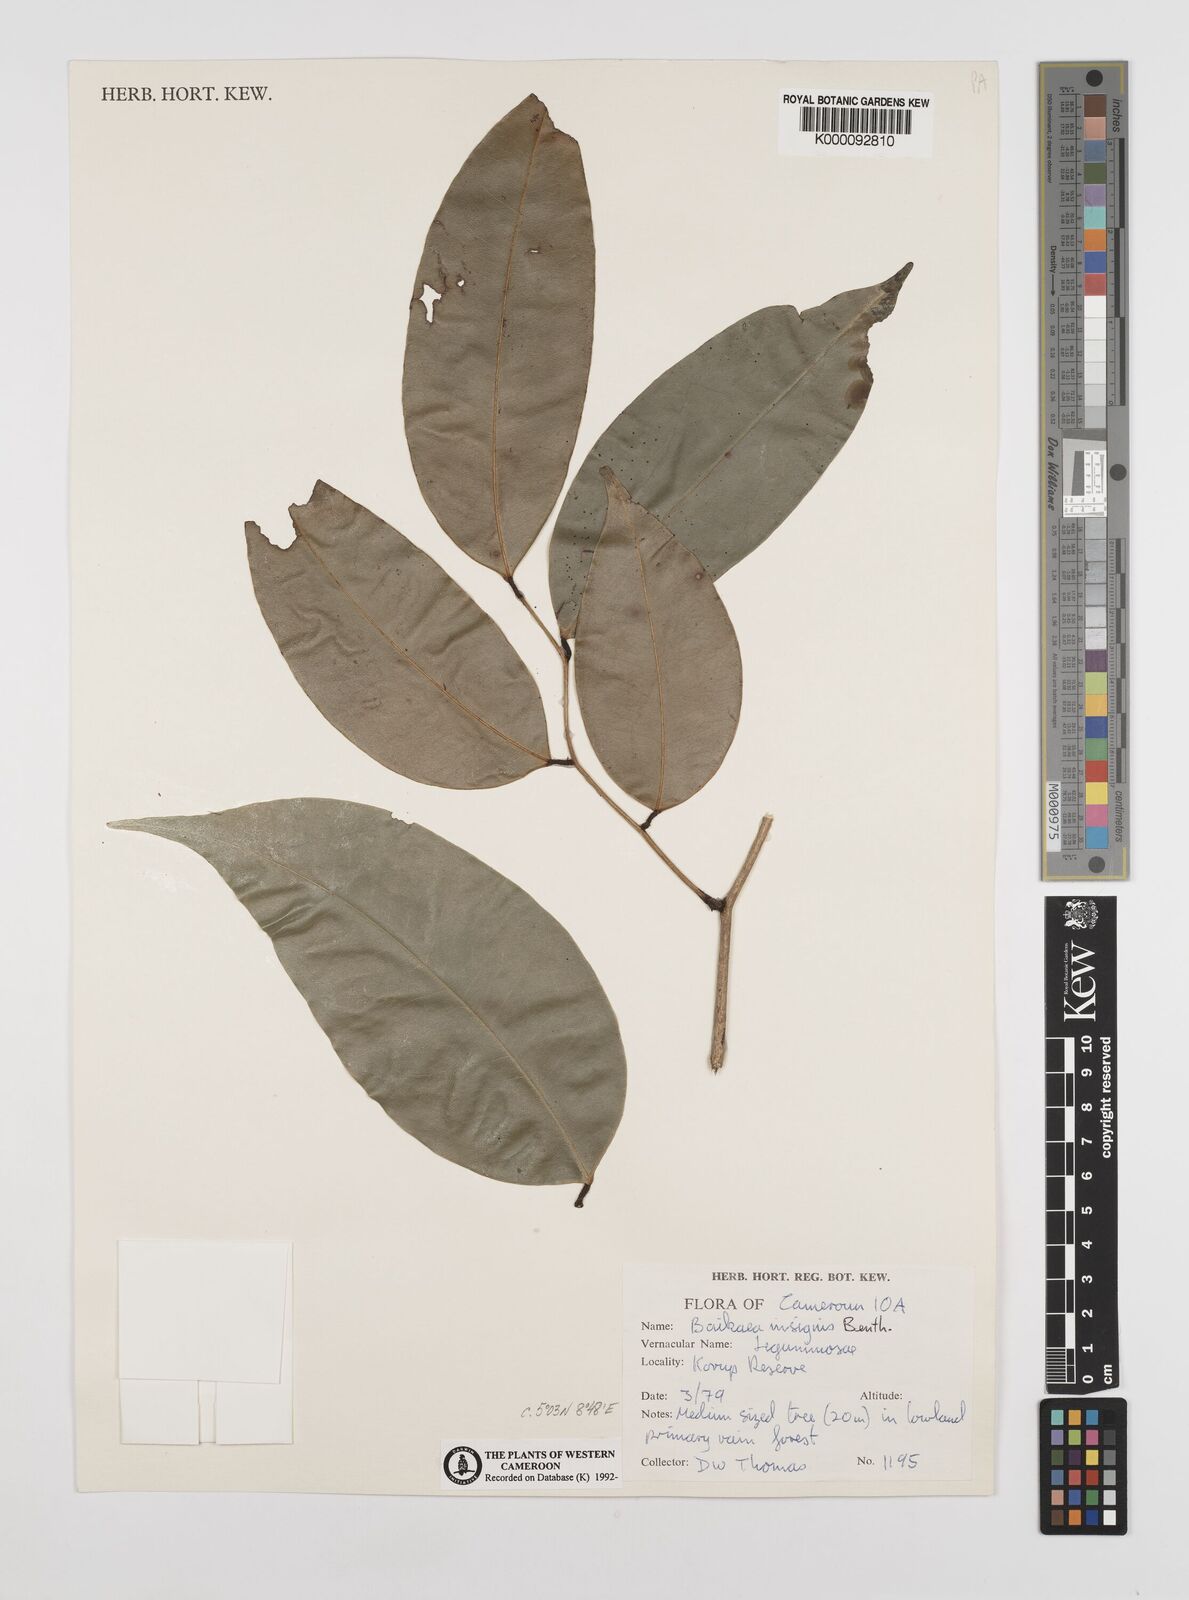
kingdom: Plantae
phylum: Tracheophyta
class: Magnoliopsida
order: Fabales
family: Fabaceae
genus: Baikiaea
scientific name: Baikiaea insignis
